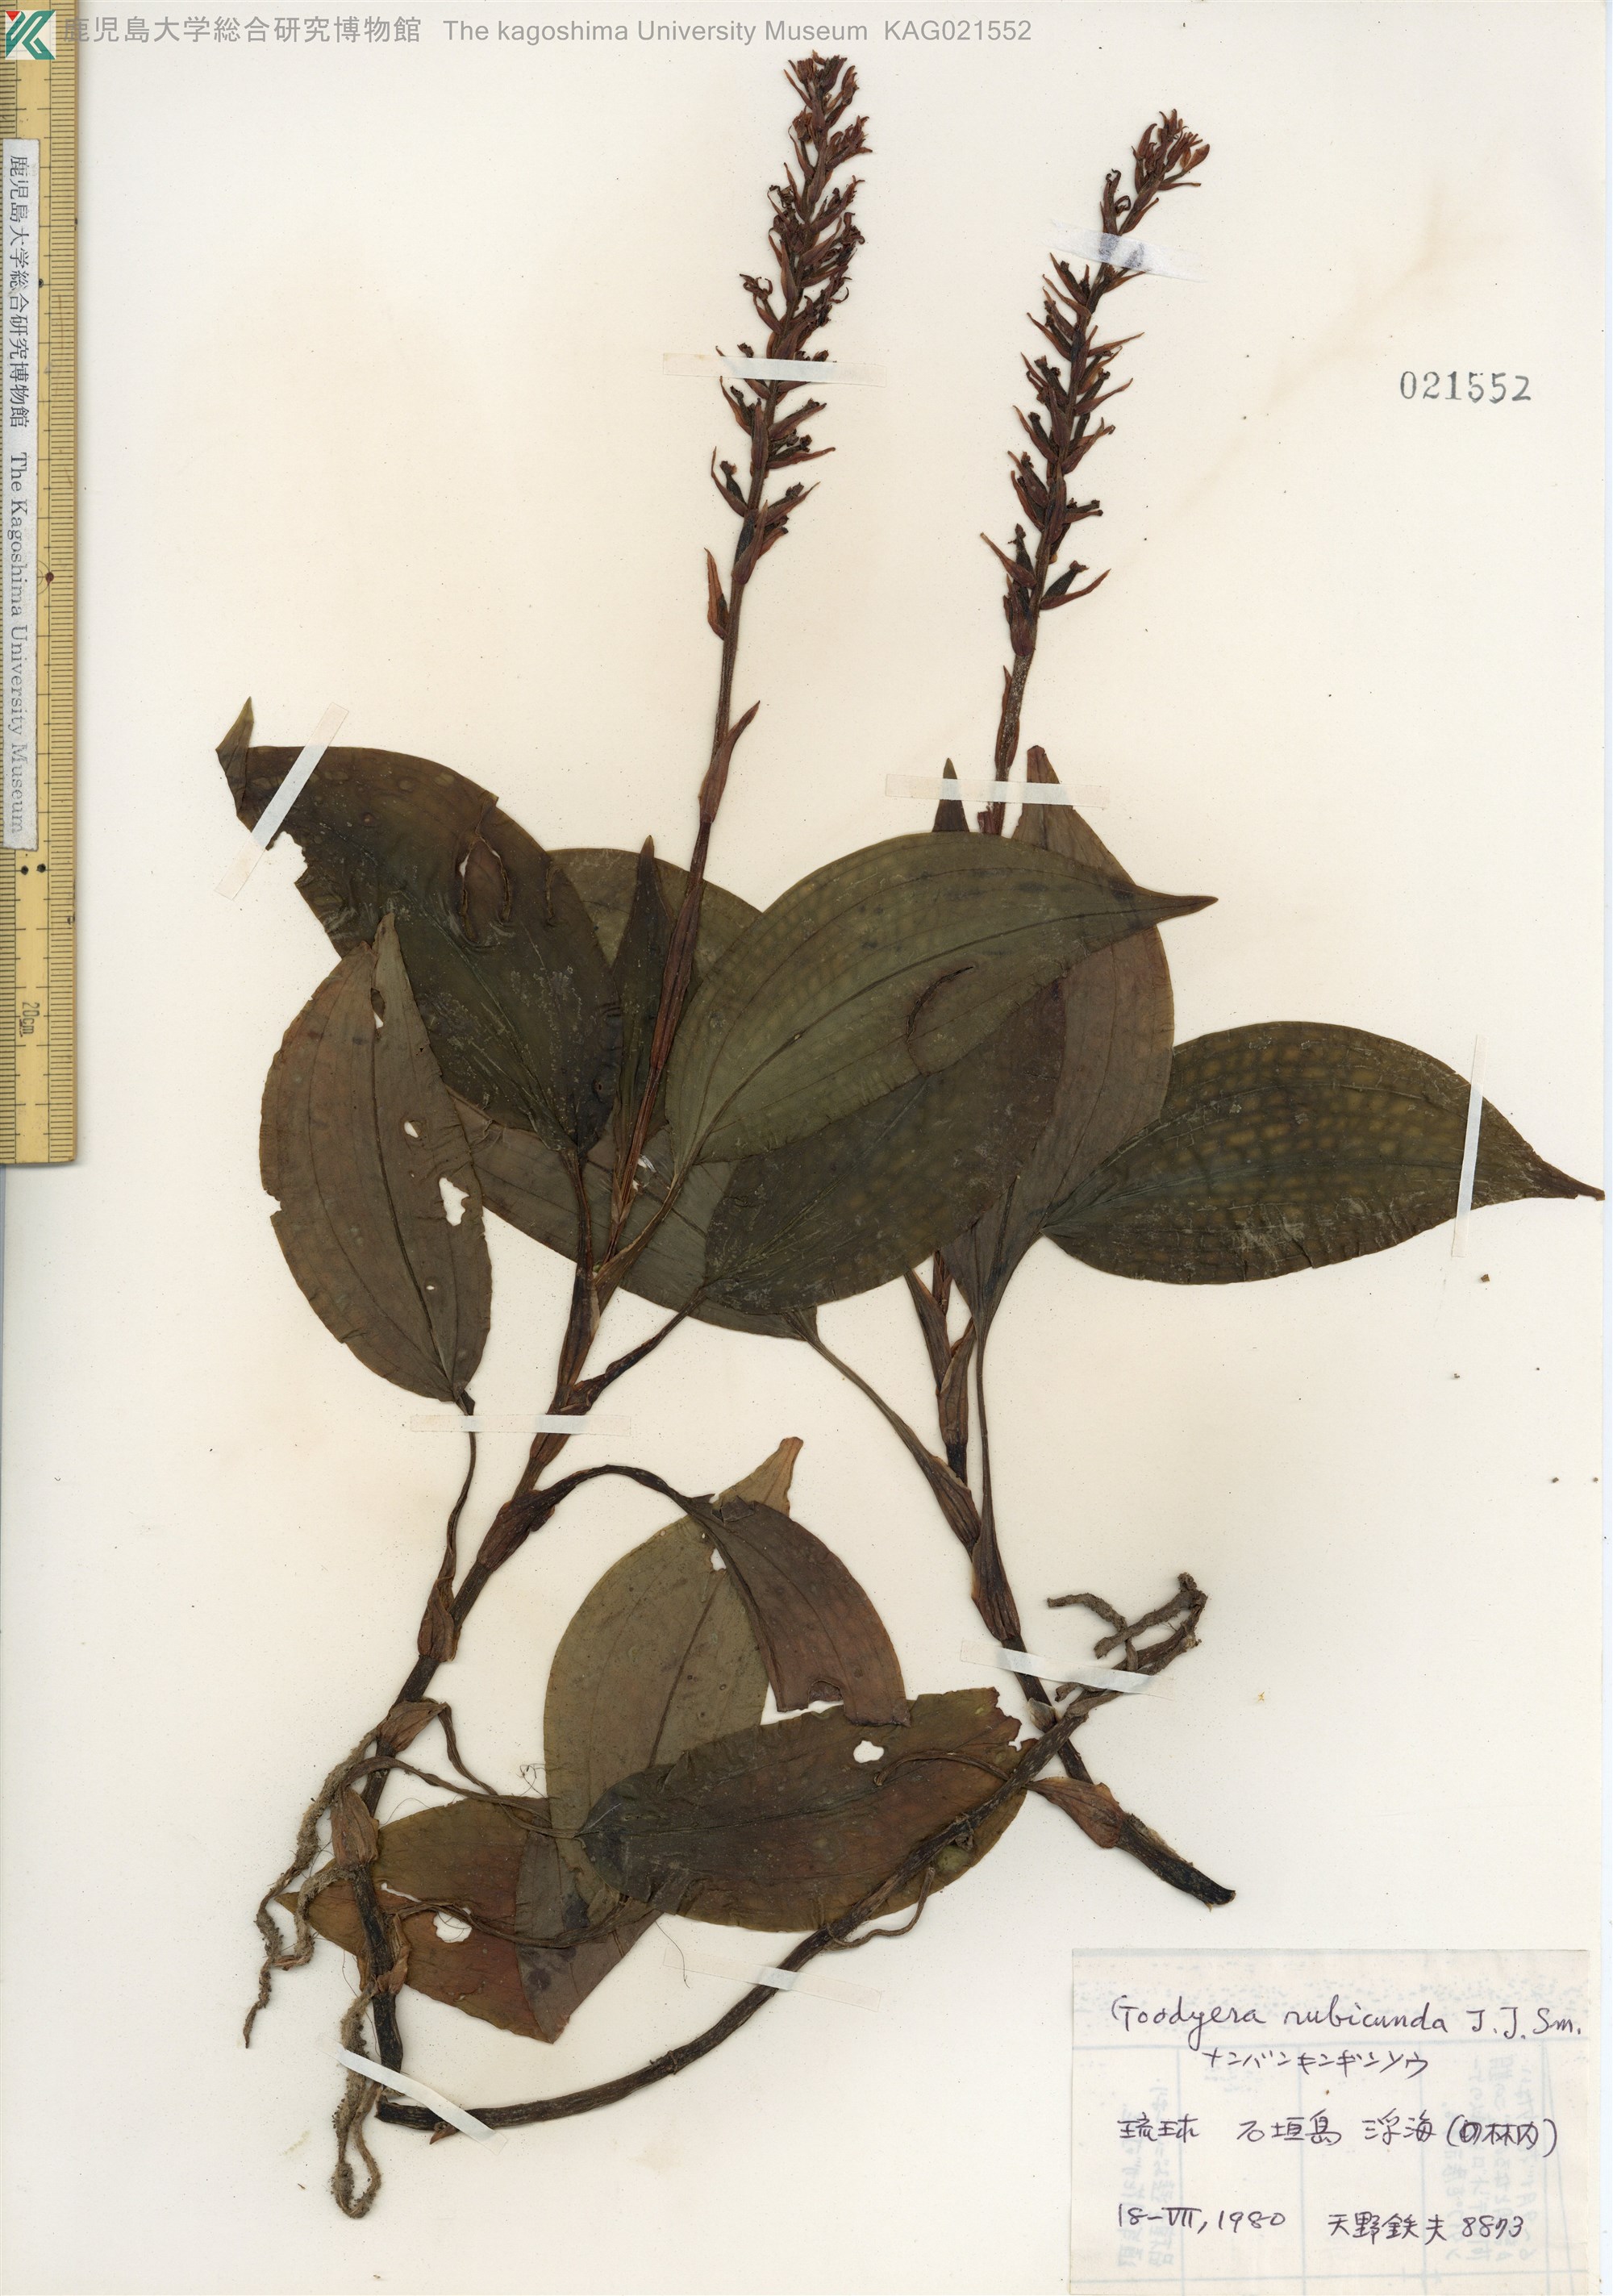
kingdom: Plantae
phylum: Tracheophyta
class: Liliopsida
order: Asparagales
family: Orchidaceae
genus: Goodyera
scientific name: Goodyera rubicunda
